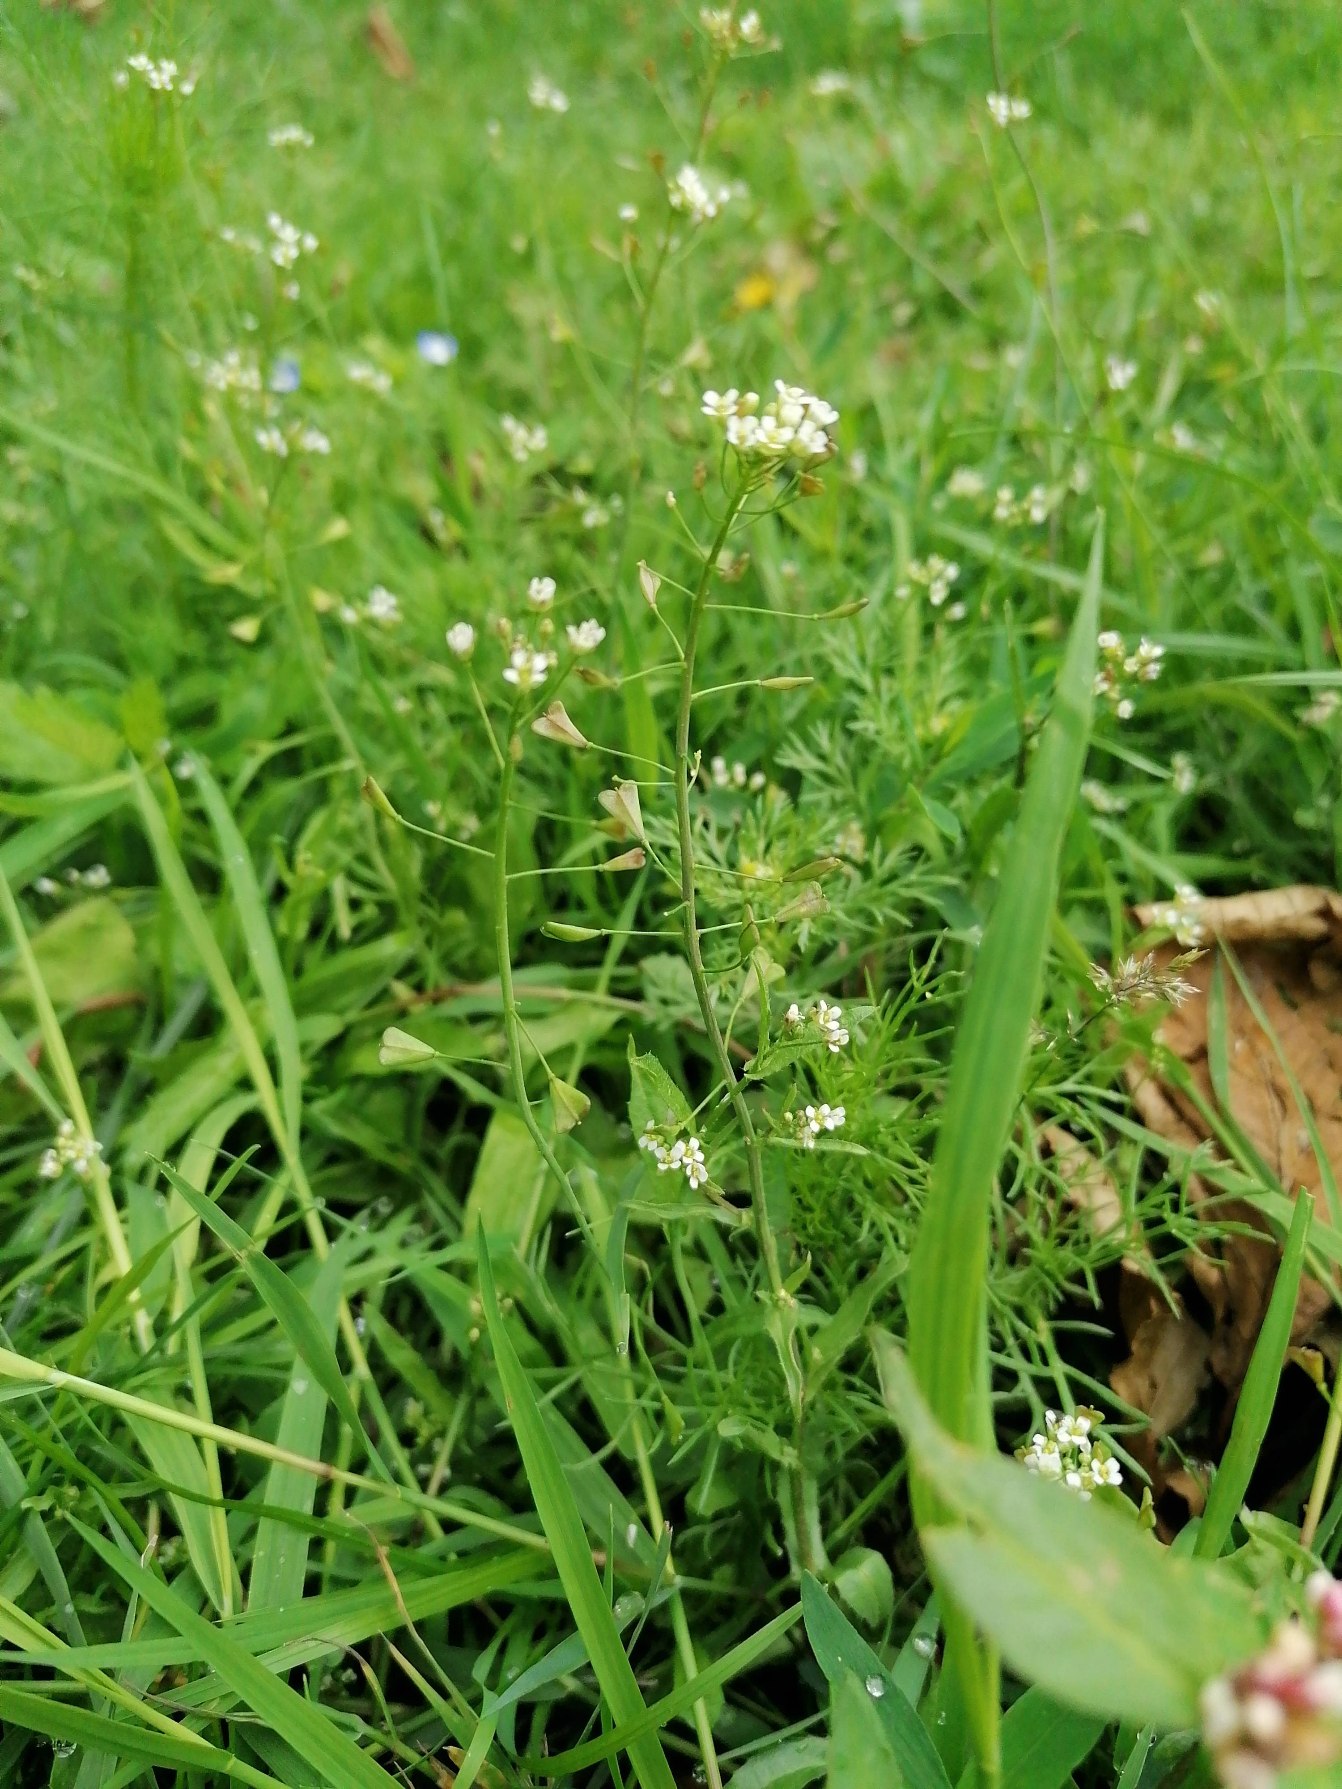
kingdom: Plantae
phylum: Tracheophyta
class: Magnoliopsida
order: Brassicales
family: Brassicaceae
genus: Capsella
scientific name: Capsella bursa-pastoris
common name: Hyrdetaske
